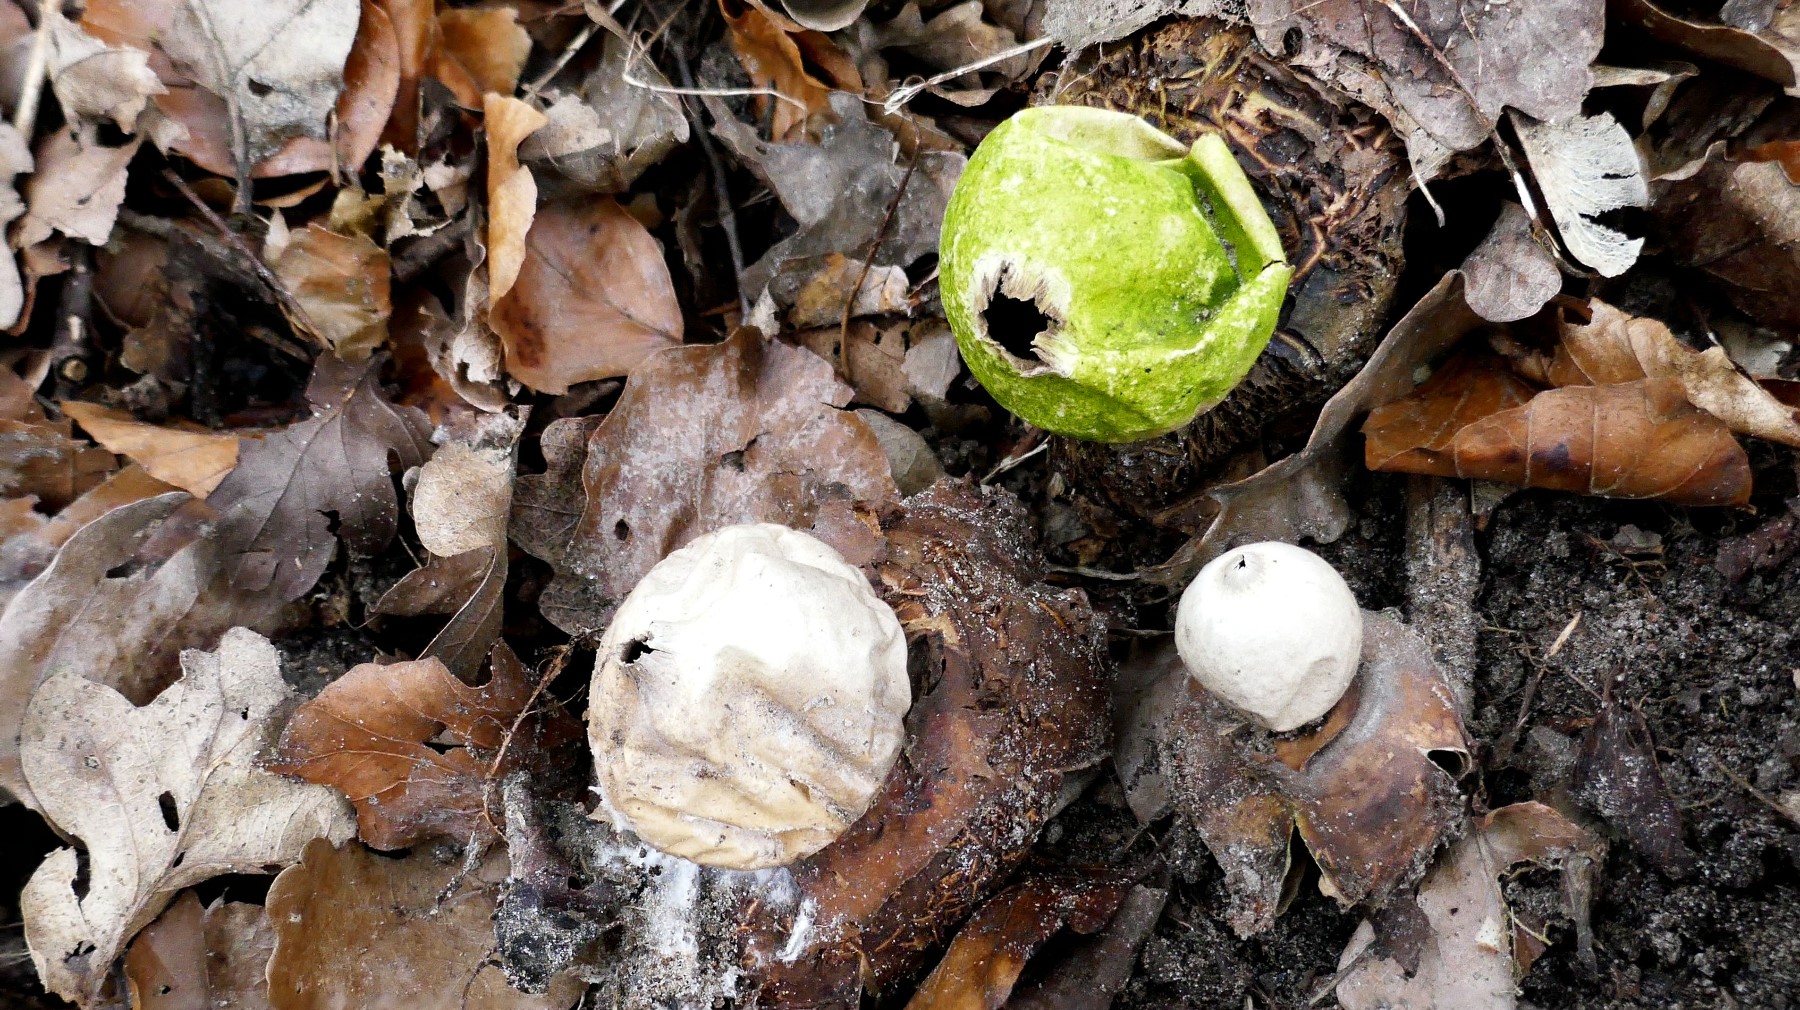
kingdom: Fungi
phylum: Basidiomycota
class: Agaricomycetes
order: Geastrales
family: Geastraceae
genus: Geastrum
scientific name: Geastrum michelianum
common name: kødet stjernebold
